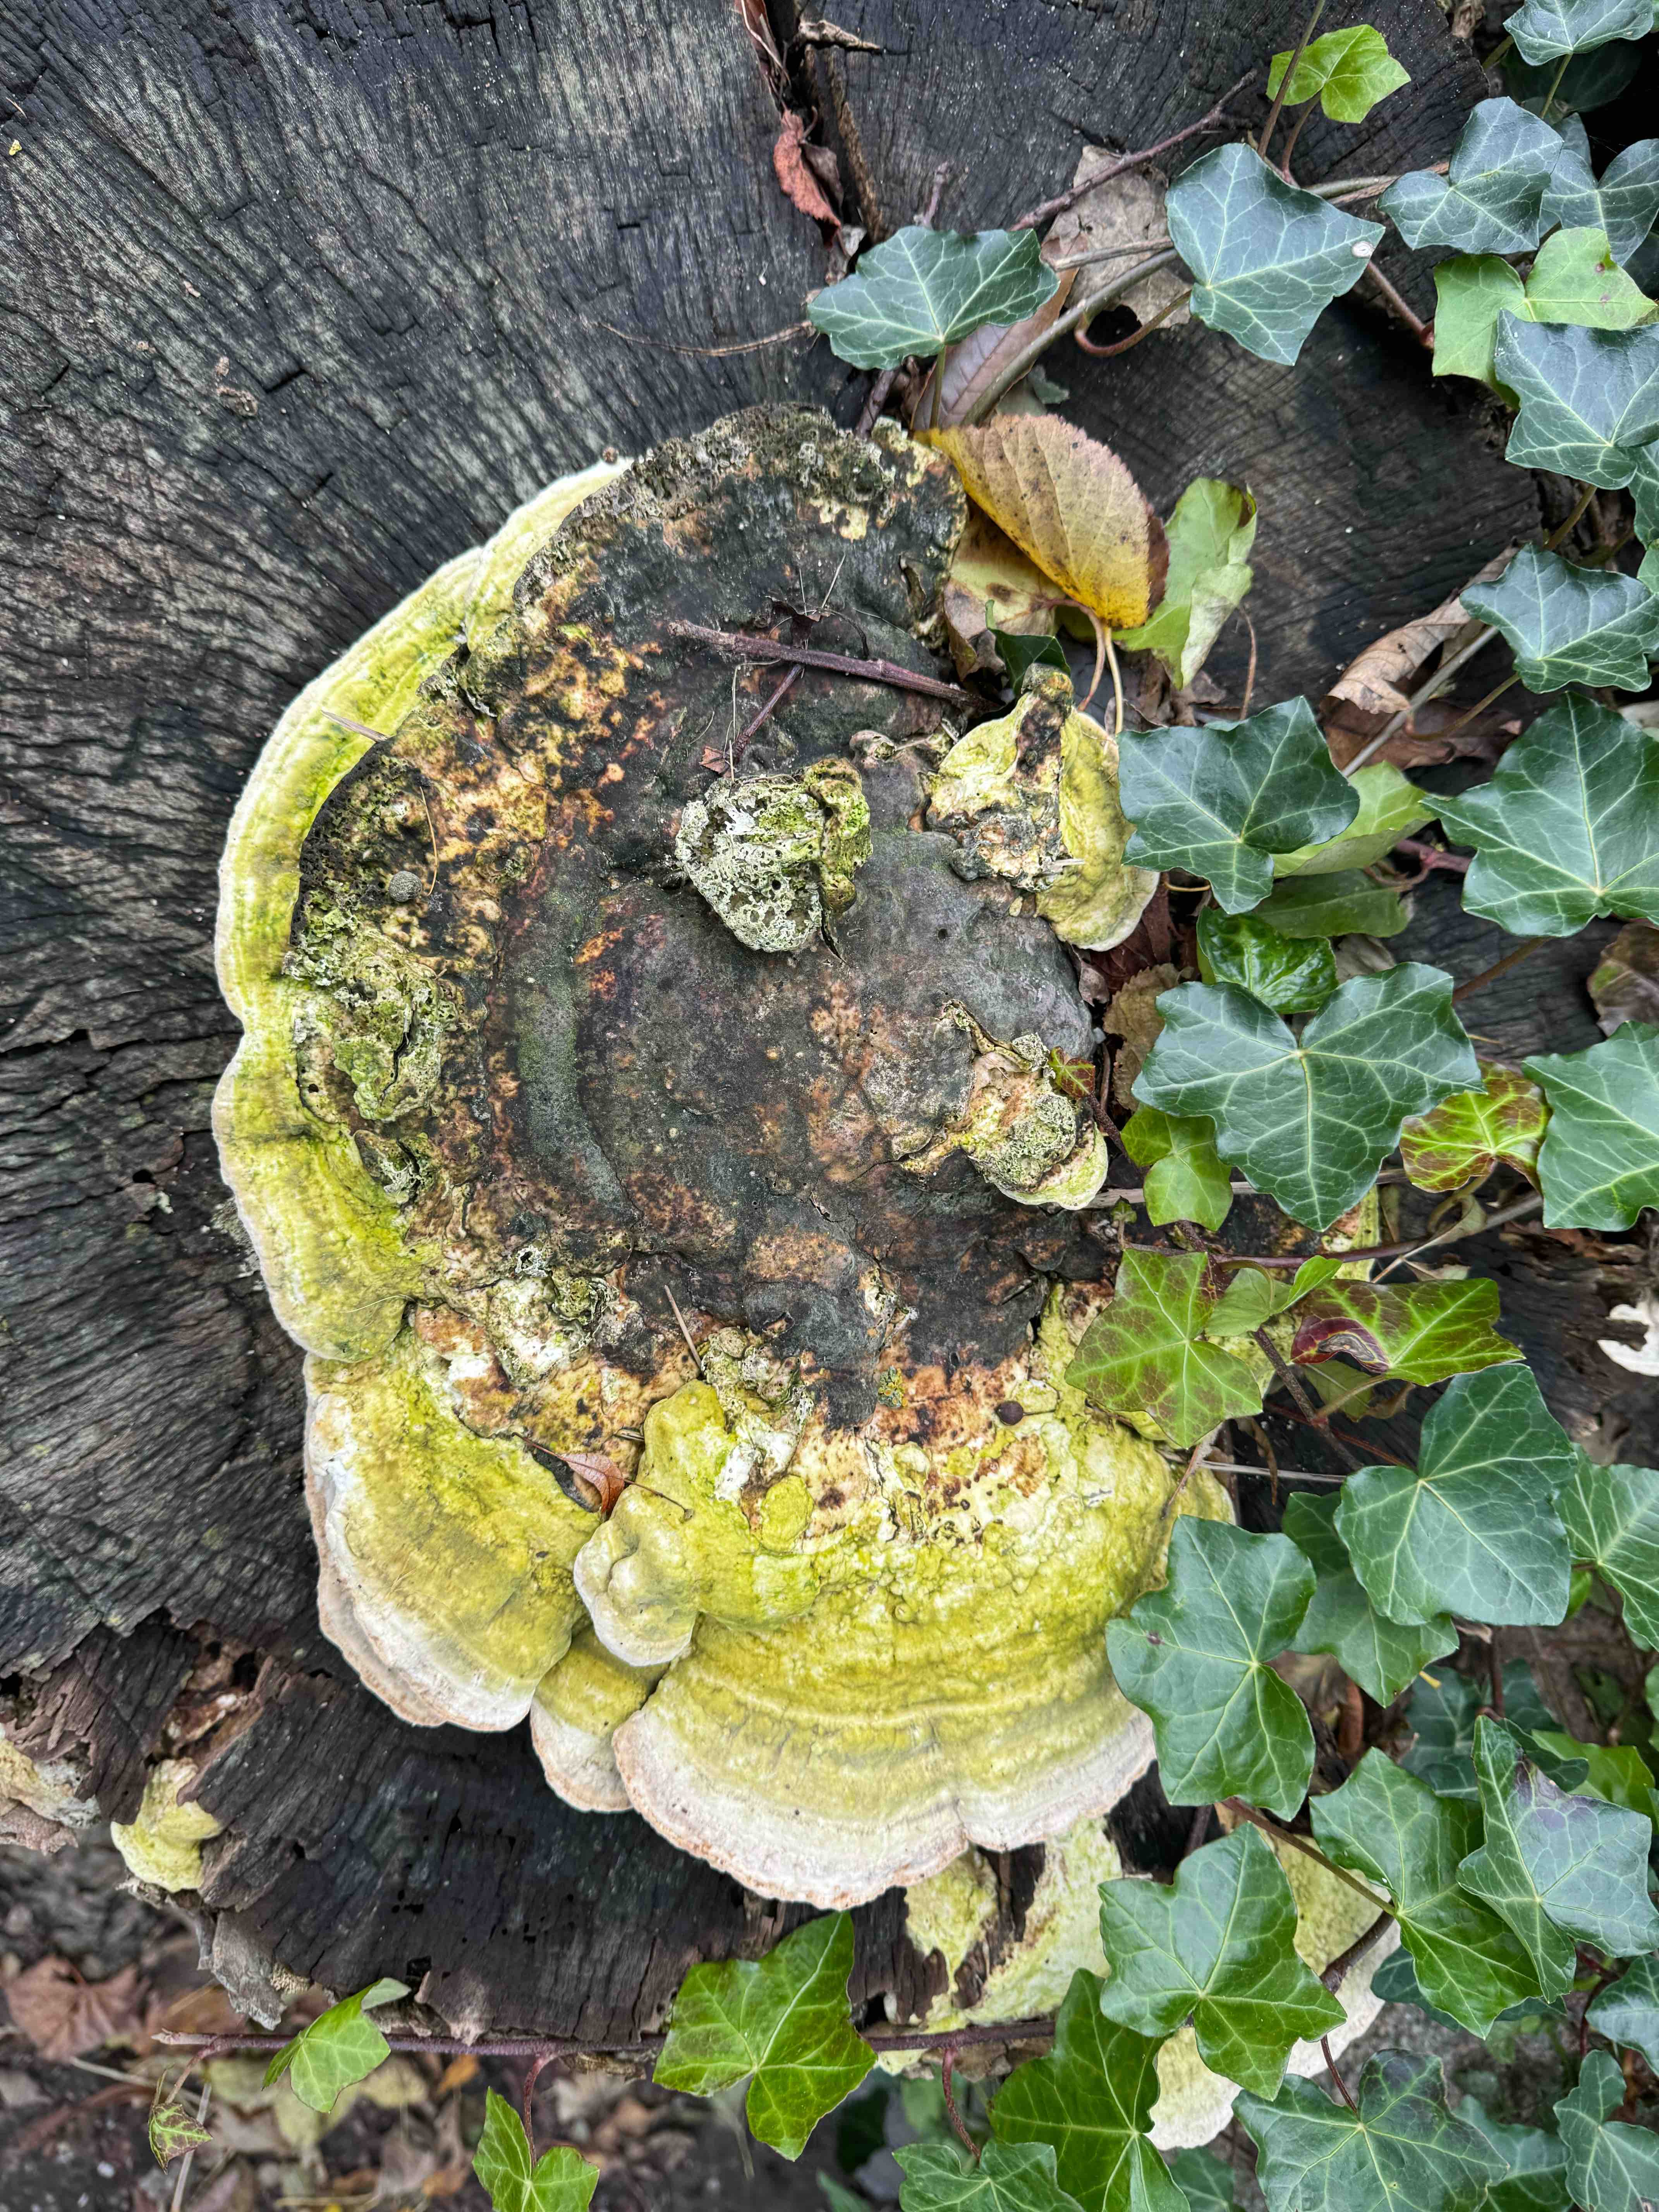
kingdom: Fungi
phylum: Basidiomycota
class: Agaricomycetes
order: Polyporales
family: Polyporaceae
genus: Trametes
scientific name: Trametes gibbosa
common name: puklet læderporesvamp
